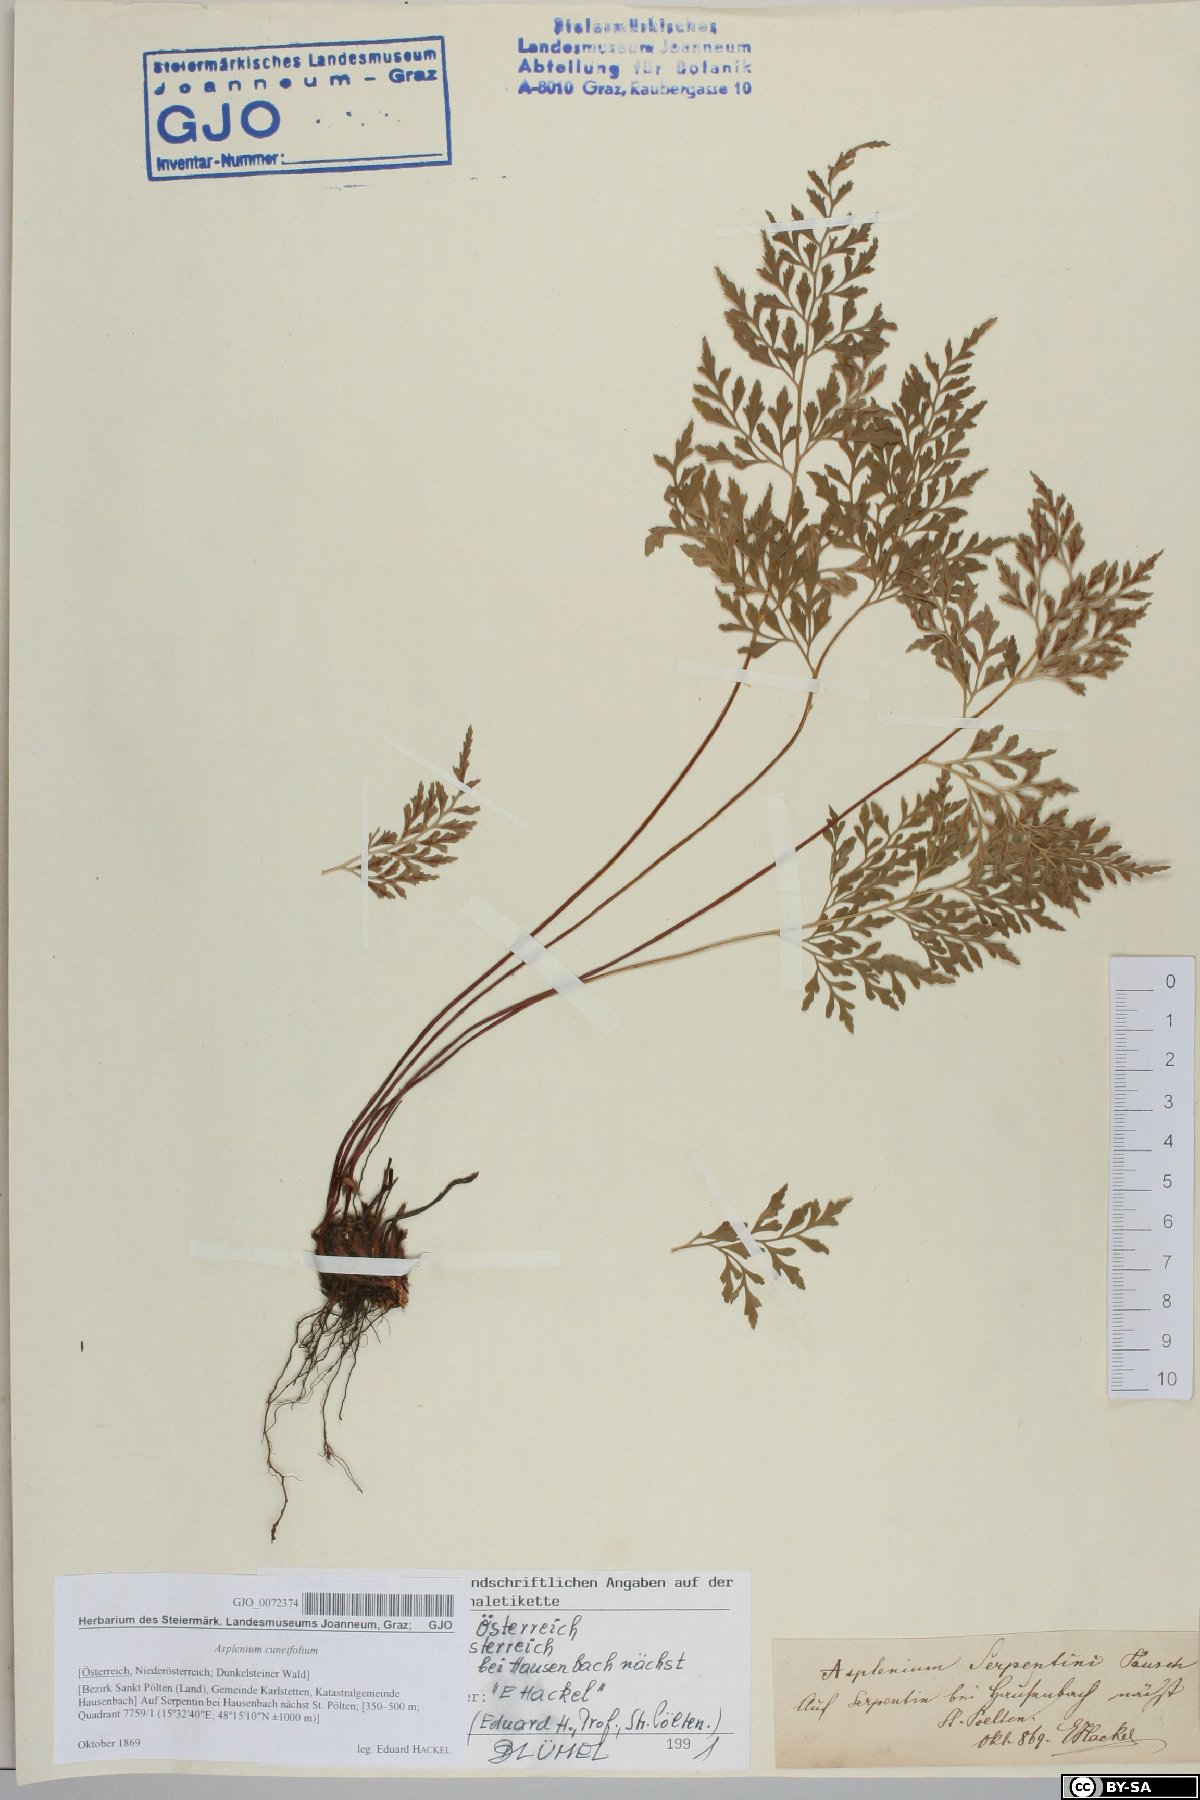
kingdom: Plantae
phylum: Tracheophyta
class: Polypodiopsida
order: Polypodiales
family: Aspleniaceae
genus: Asplenium
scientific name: Asplenium cuneifolium
